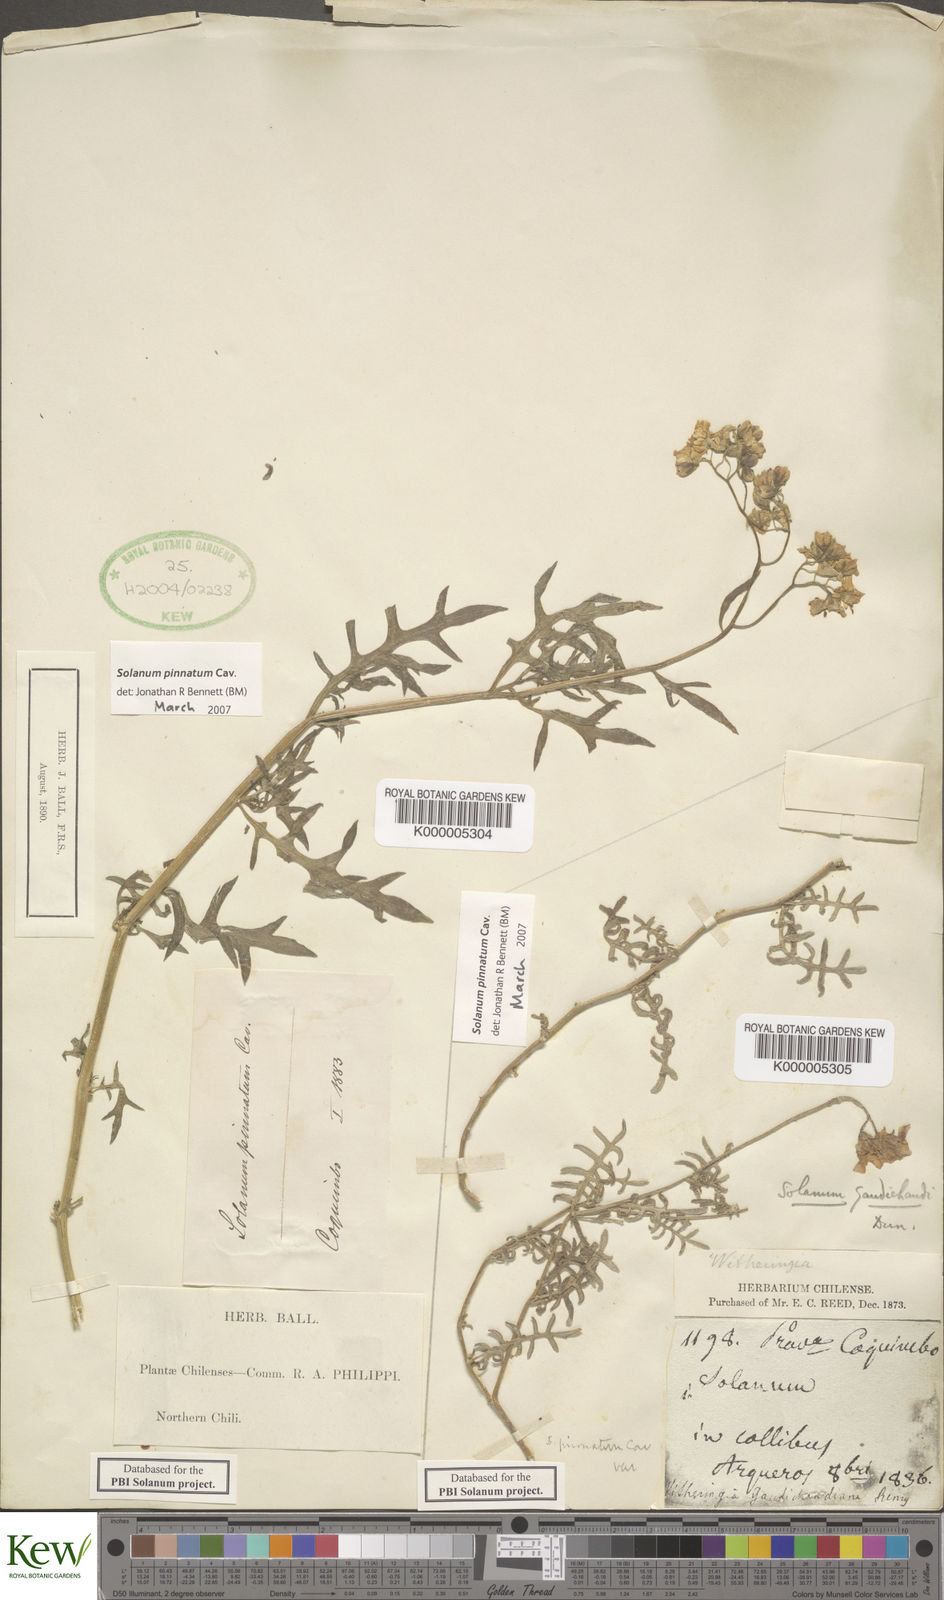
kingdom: Plantae
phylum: Tracheophyta
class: Magnoliopsida
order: Solanales
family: Solanaceae
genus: Solanum
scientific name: Solanum pinnatum
